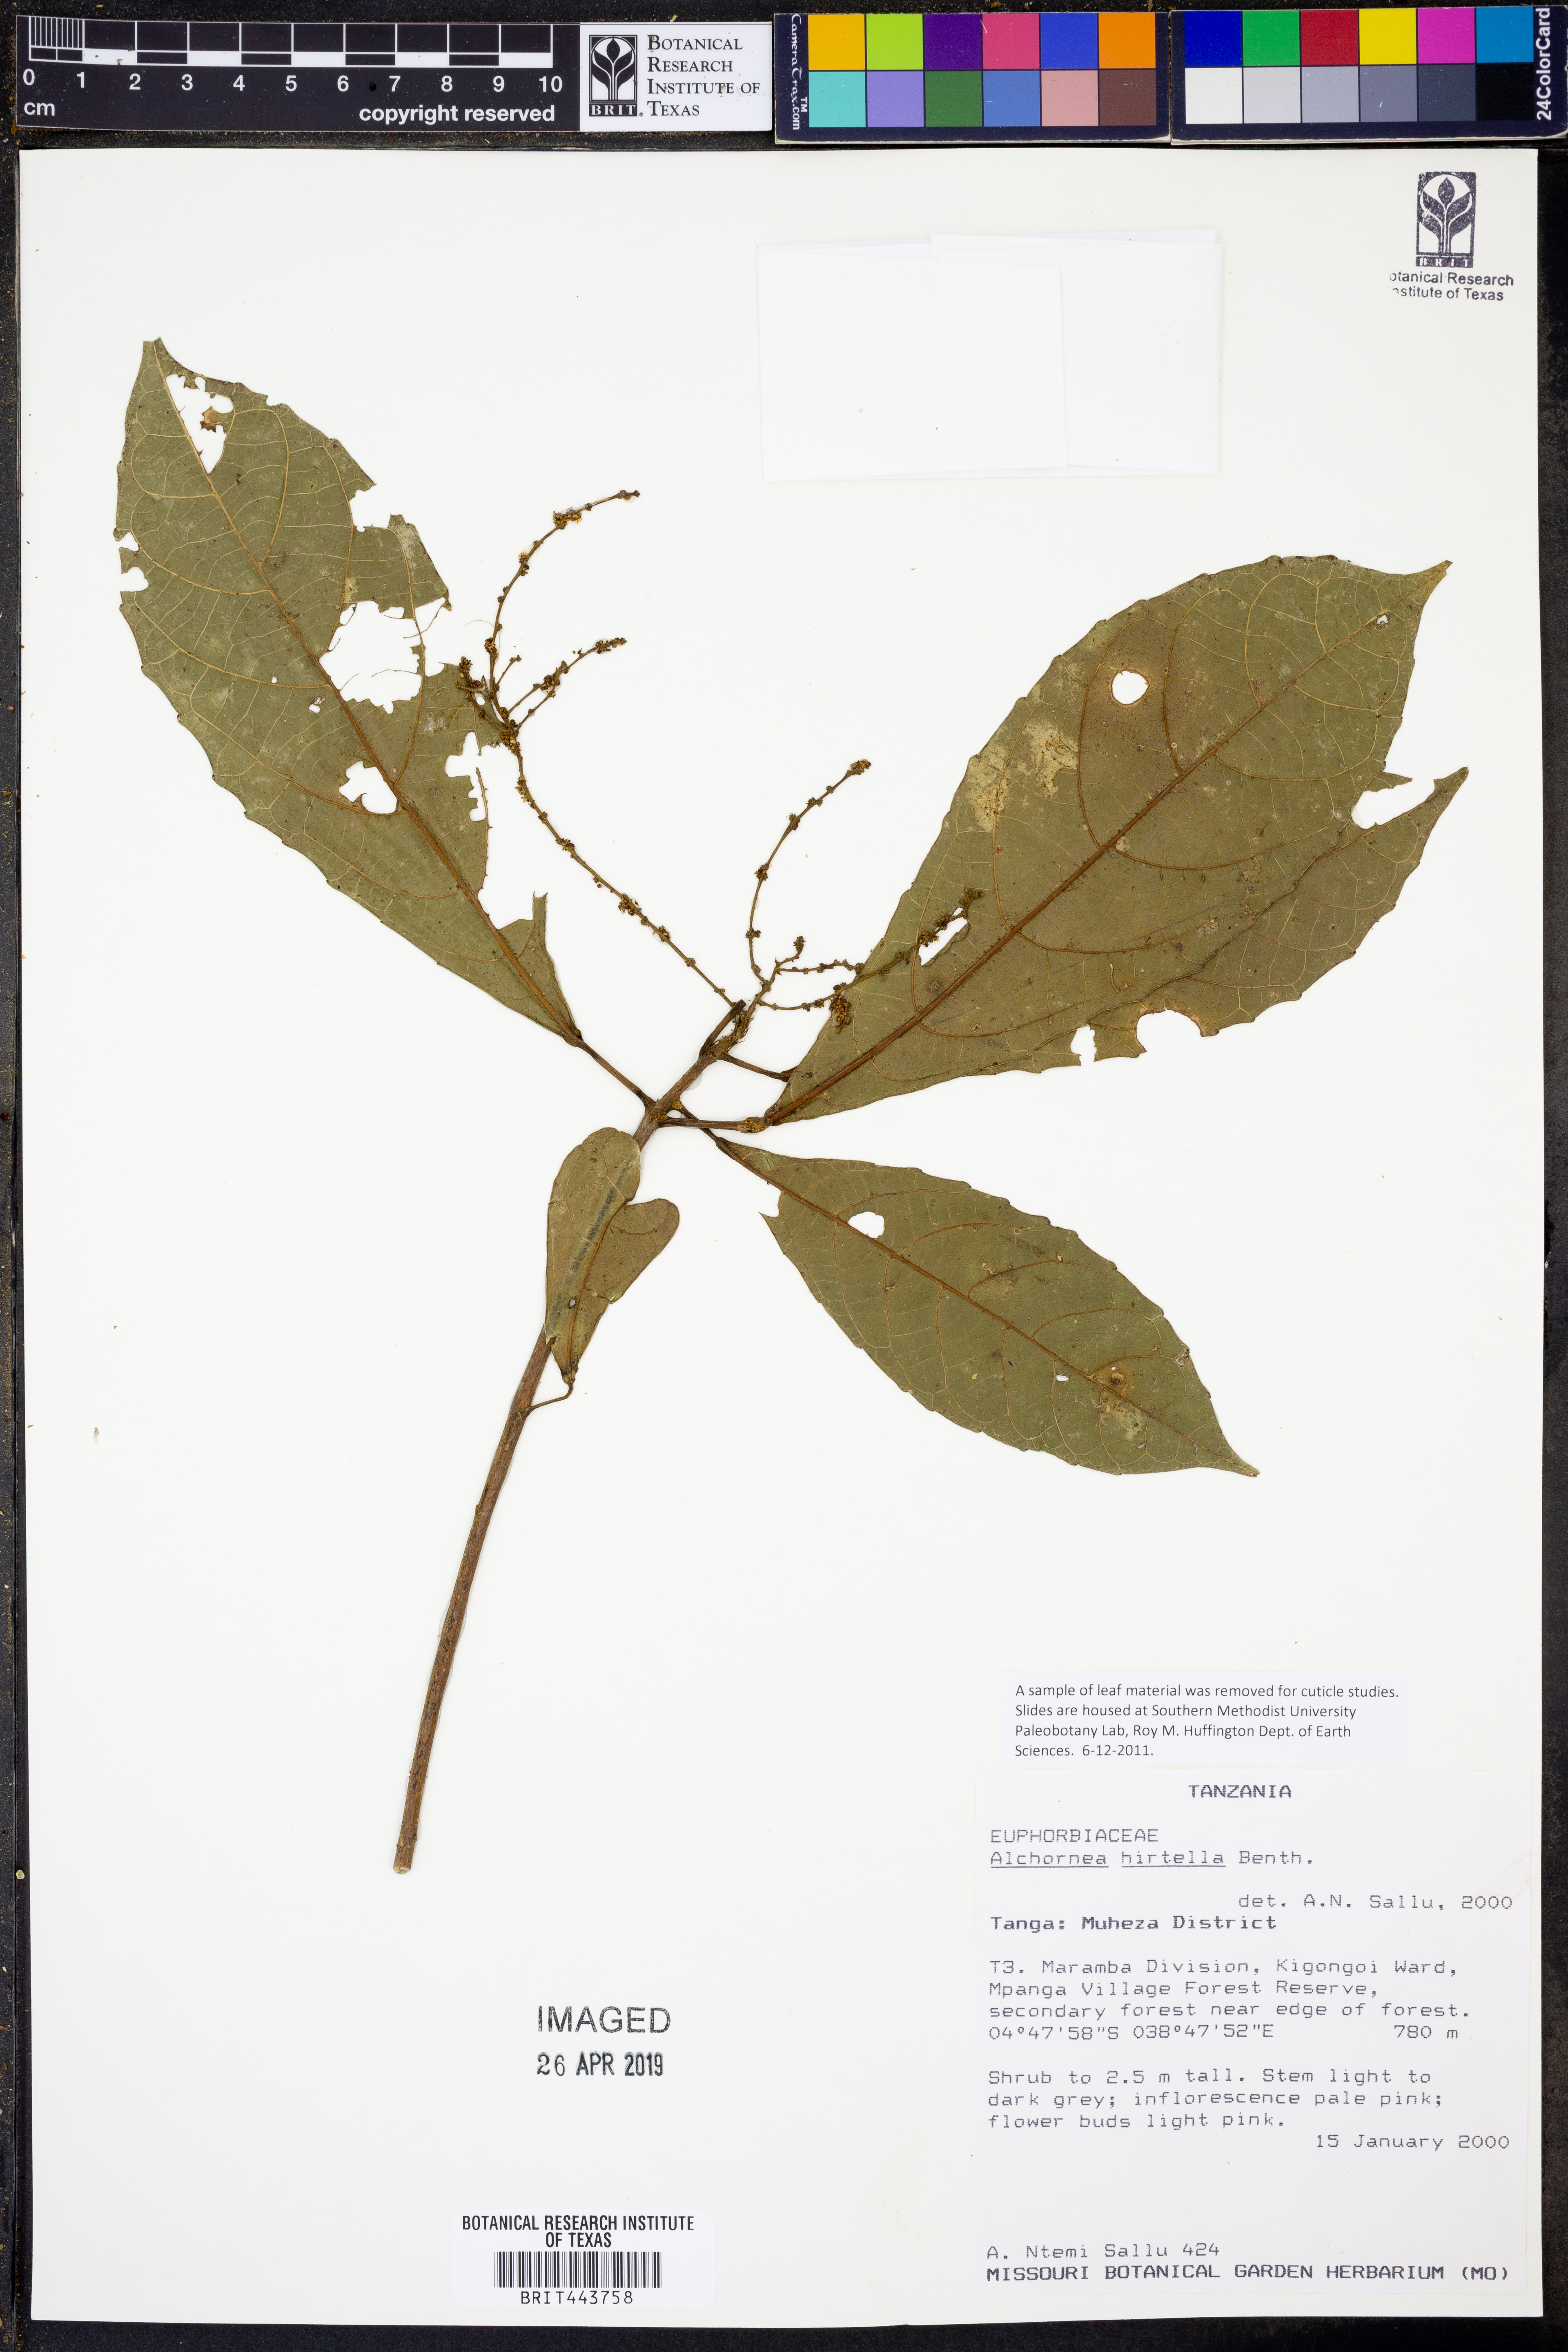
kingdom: Plantae
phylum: Tracheophyta
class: Magnoliopsida
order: Malpighiales
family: Euphorbiaceae
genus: Alchornea
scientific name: Alchornea hirtella
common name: Forest bead-string
